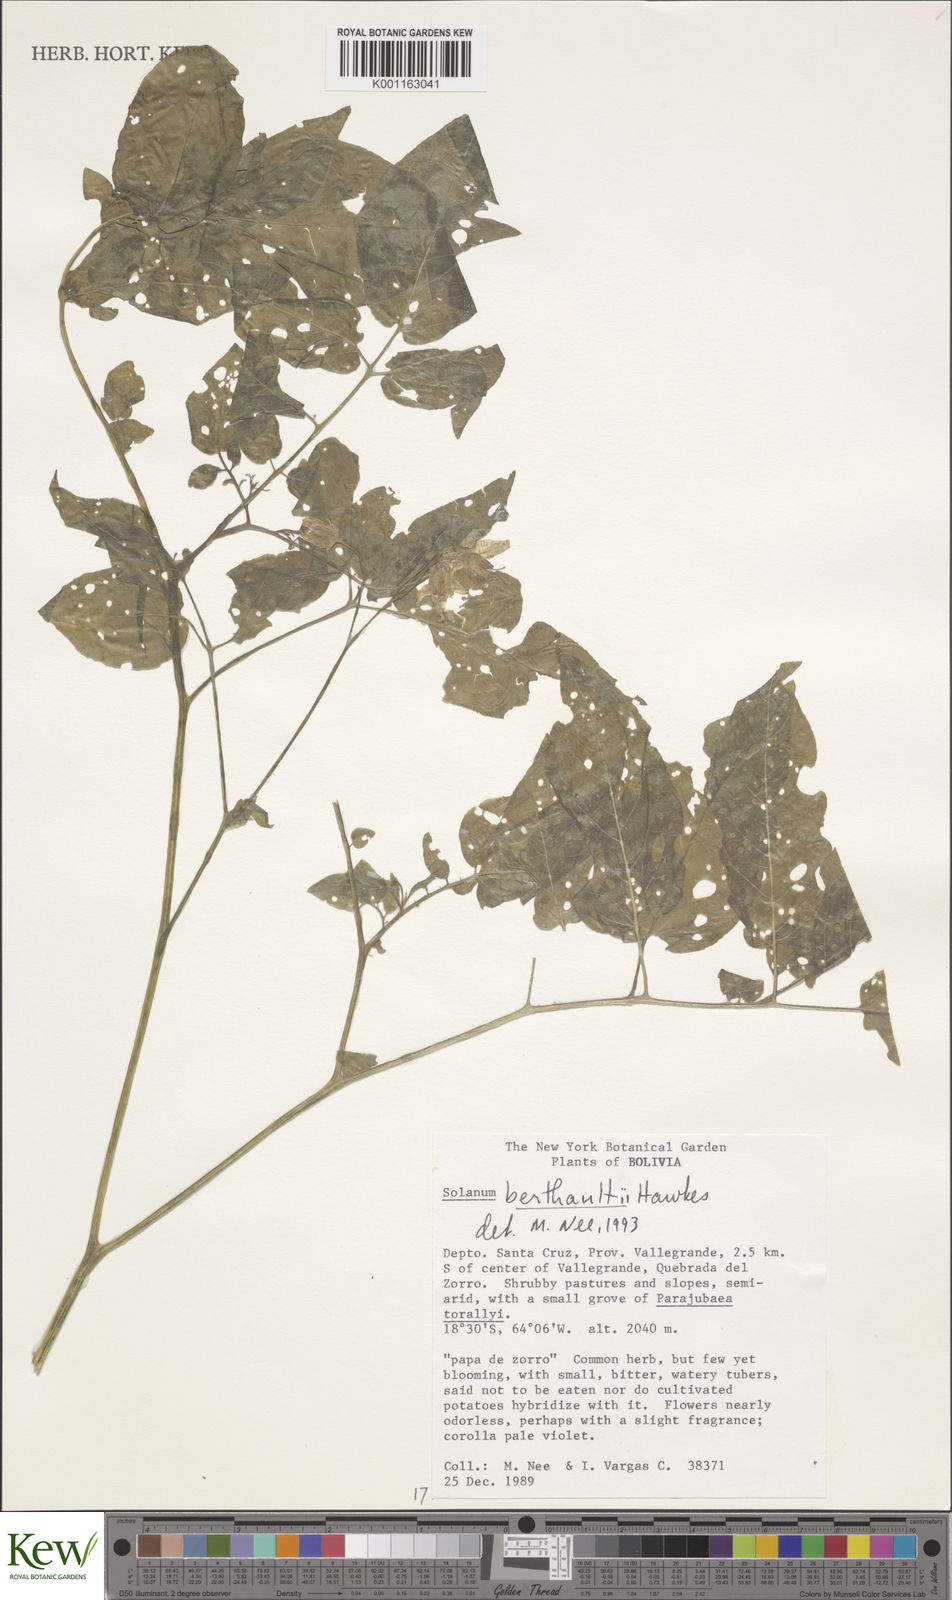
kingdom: Plantae
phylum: Tracheophyta
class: Magnoliopsida
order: Solanales
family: Solanaceae
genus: Solanum
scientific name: Solanum berthaultii
